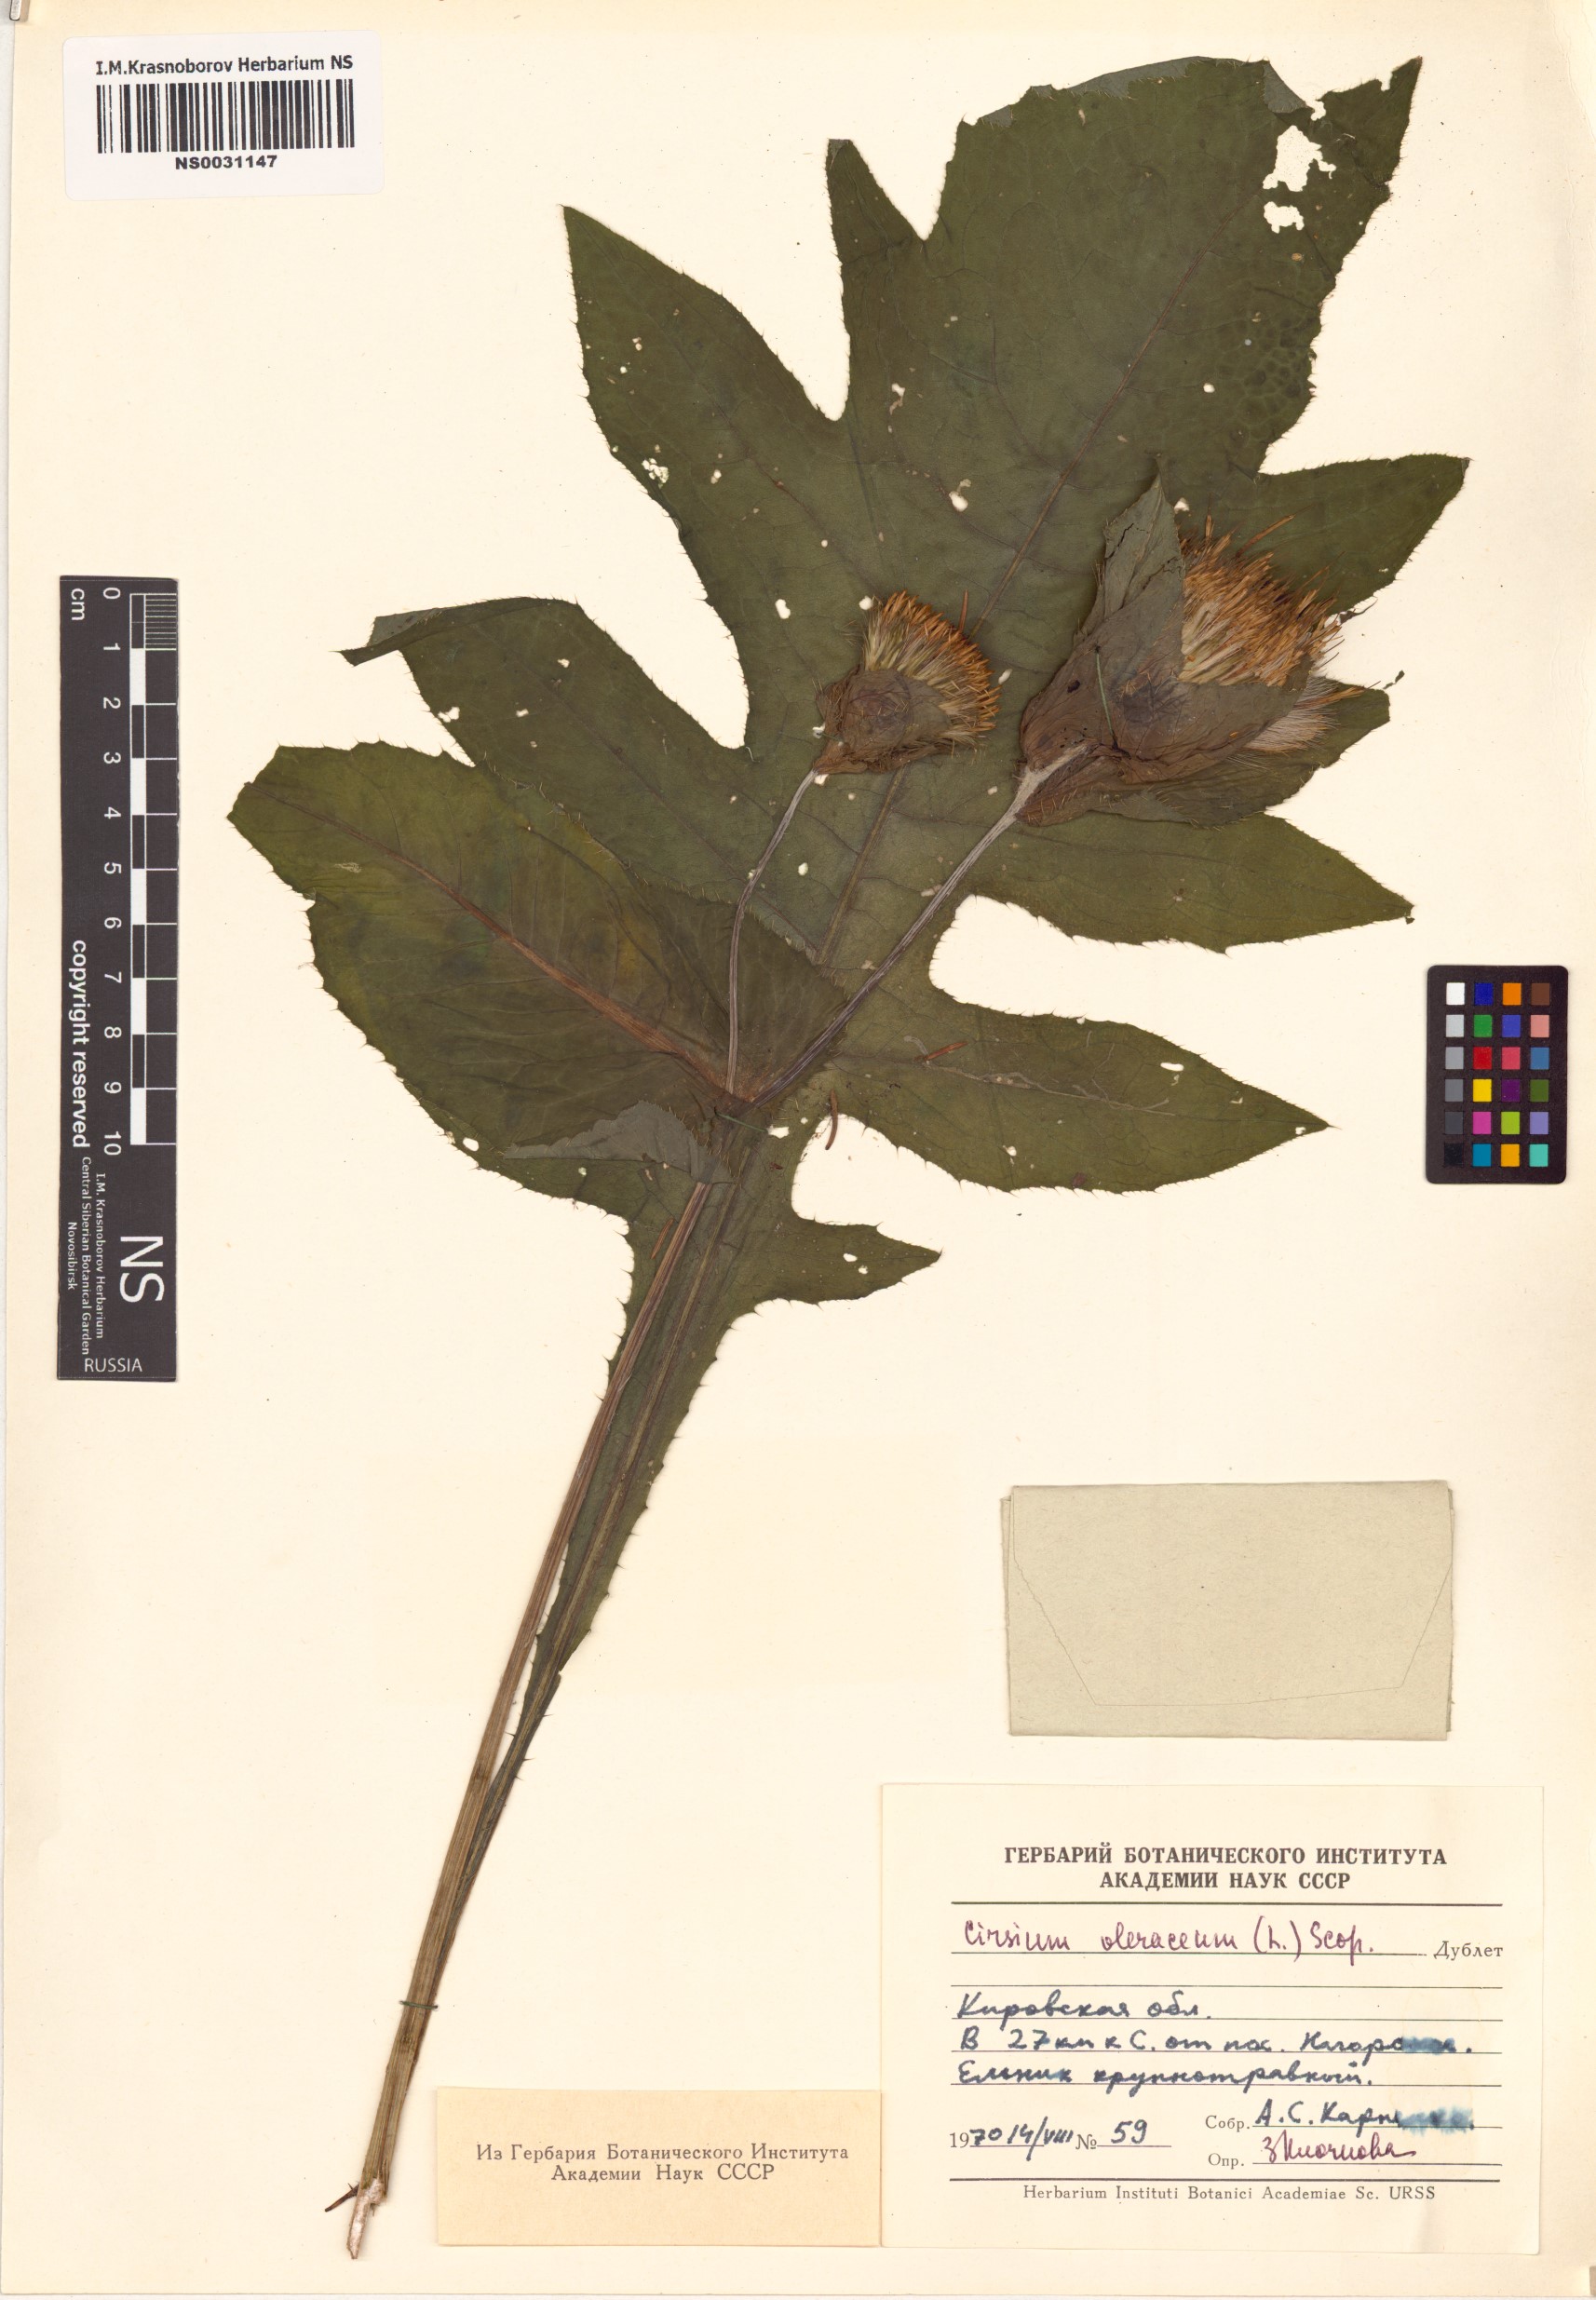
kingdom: Plantae
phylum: Tracheophyta
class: Magnoliopsida
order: Asterales
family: Asteraceae
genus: Cirsium
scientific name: Cirsium oleraceum
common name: Cabbage thistle
